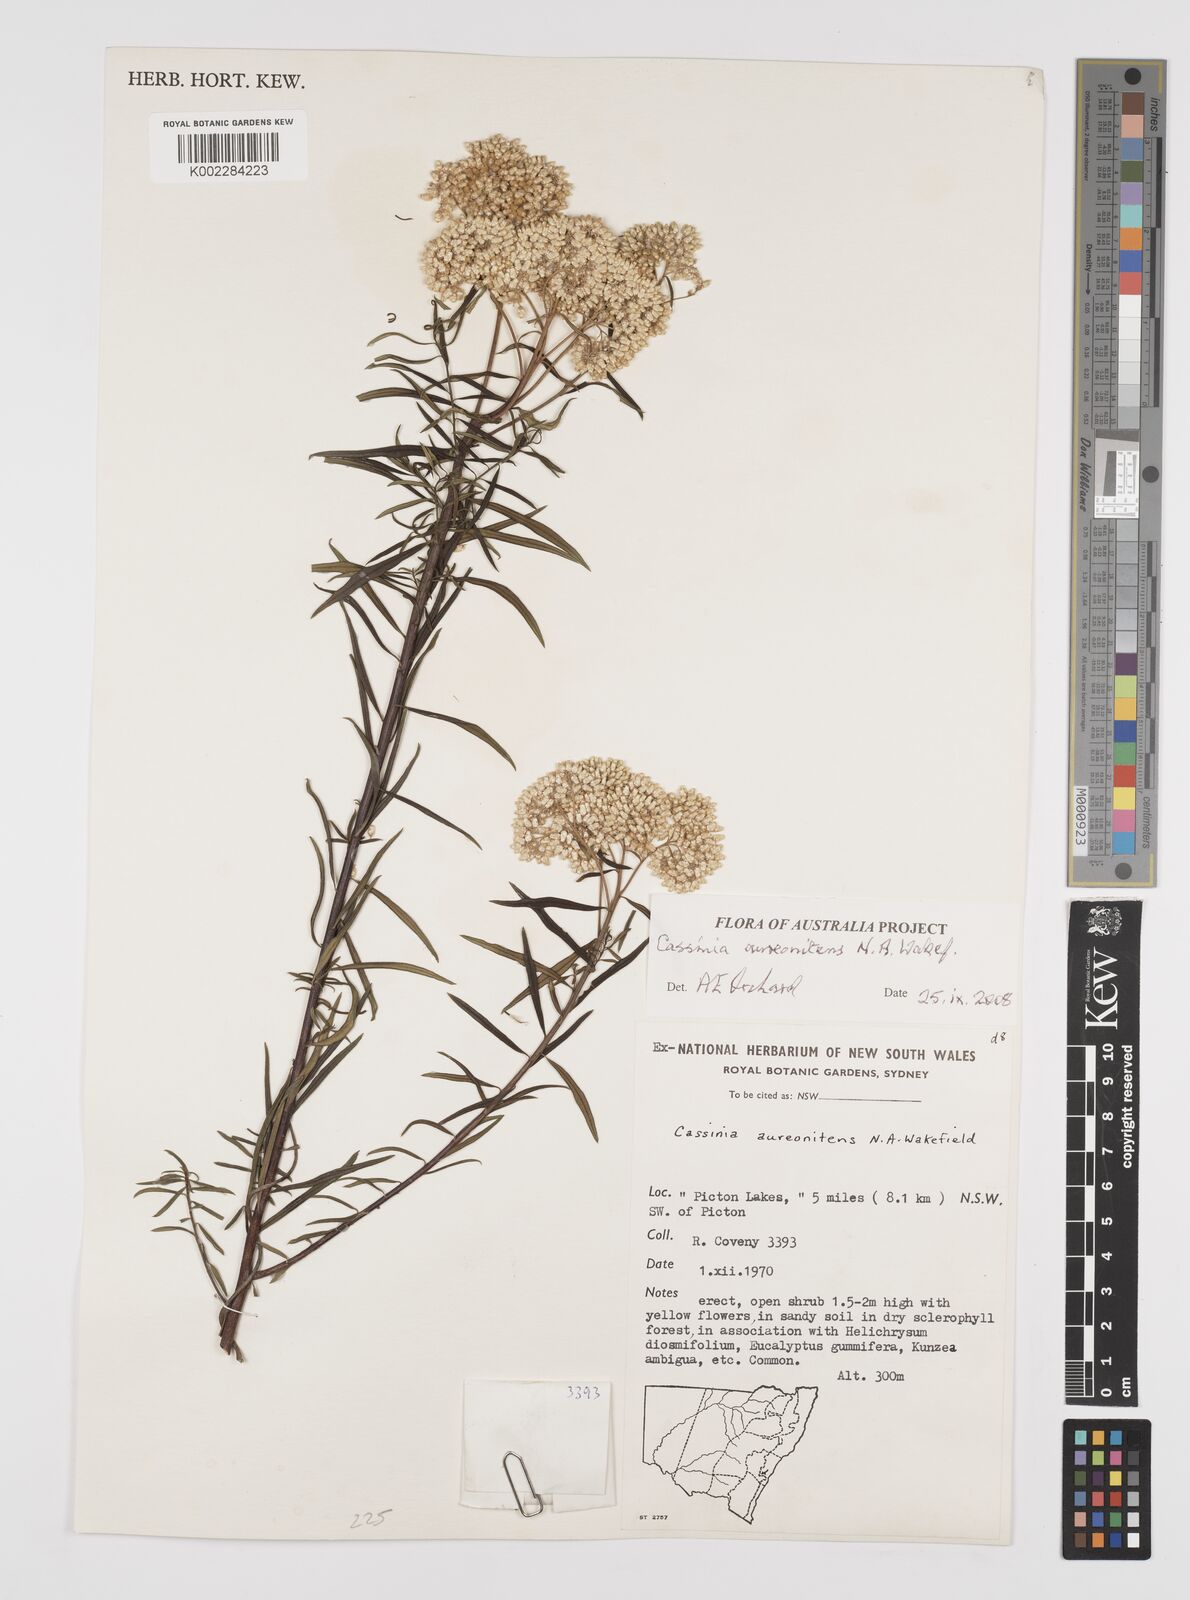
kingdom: Plantae
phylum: Tracheophyta
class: Magnoliopsida
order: Asterales
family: Asteraceae
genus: Cassinia
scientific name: Cassinia aureonitens
